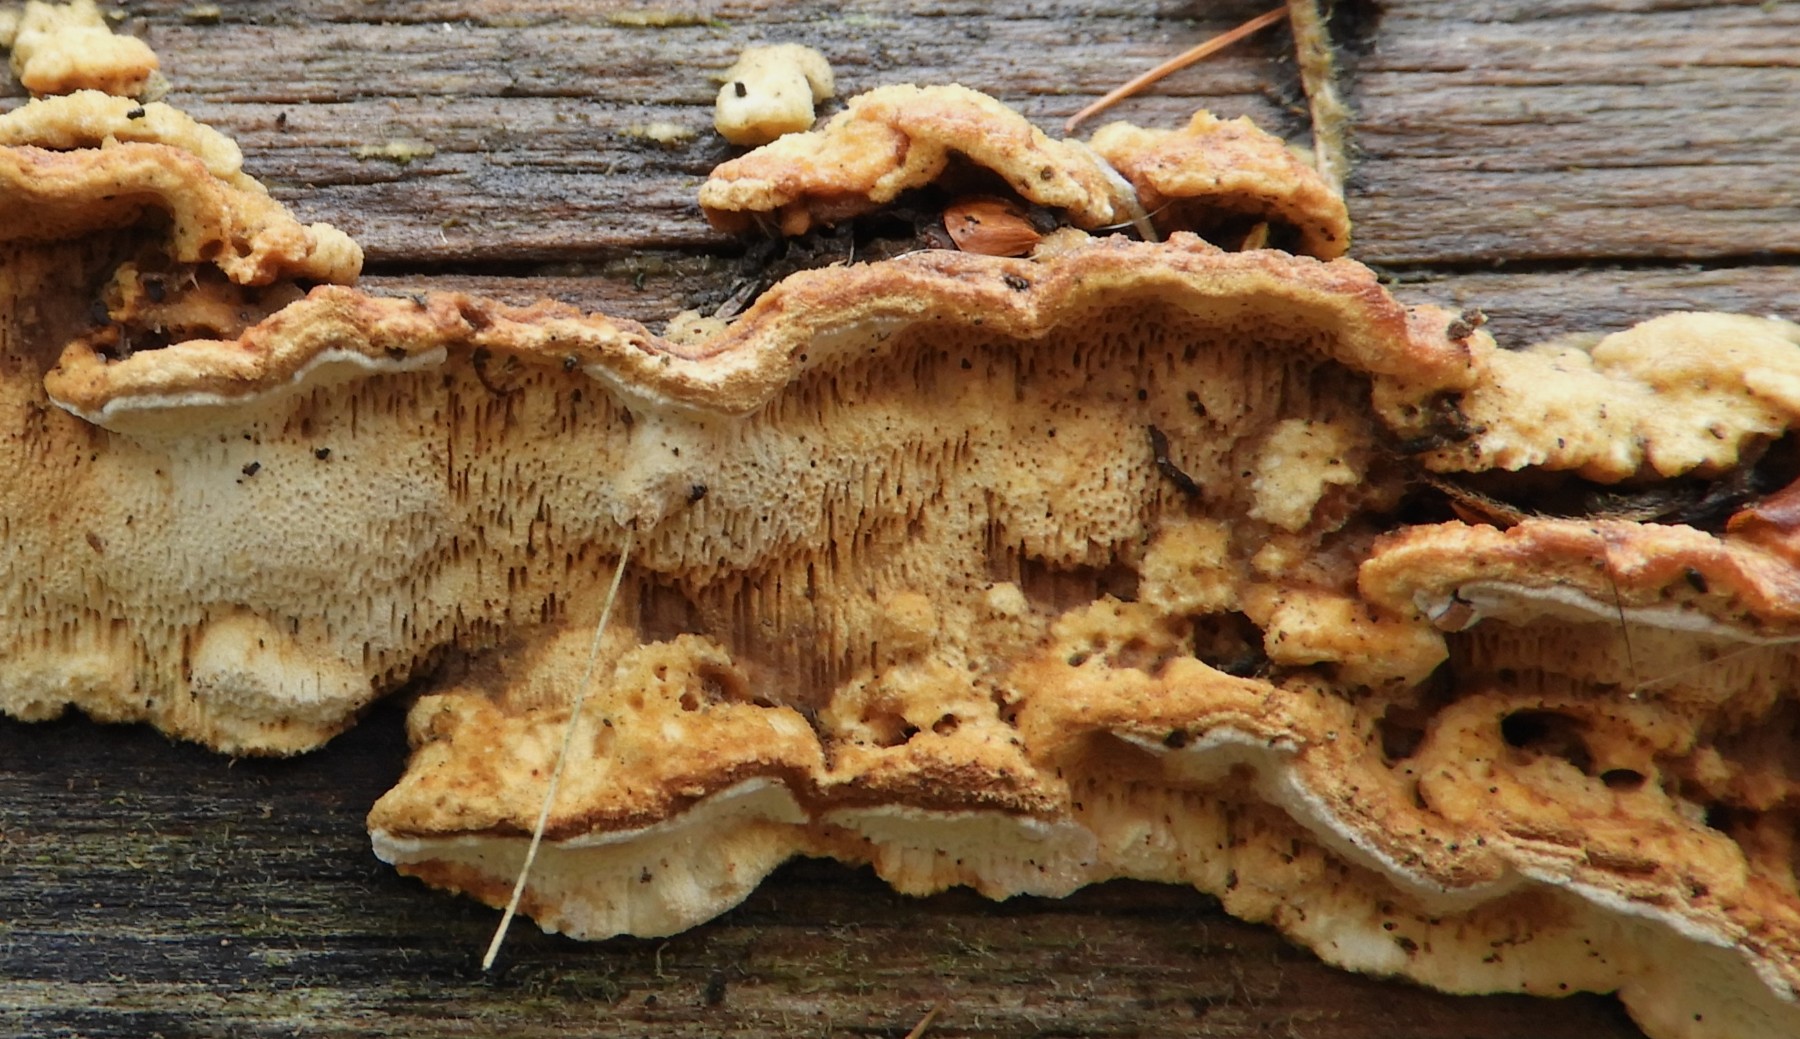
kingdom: Fungi
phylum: Basidiomycota
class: Agaricomycetes
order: Polyporales
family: Fomitopsidaceae
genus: Neoantrodia
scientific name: Neoantrodia serialis
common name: række-sejporesvamp
